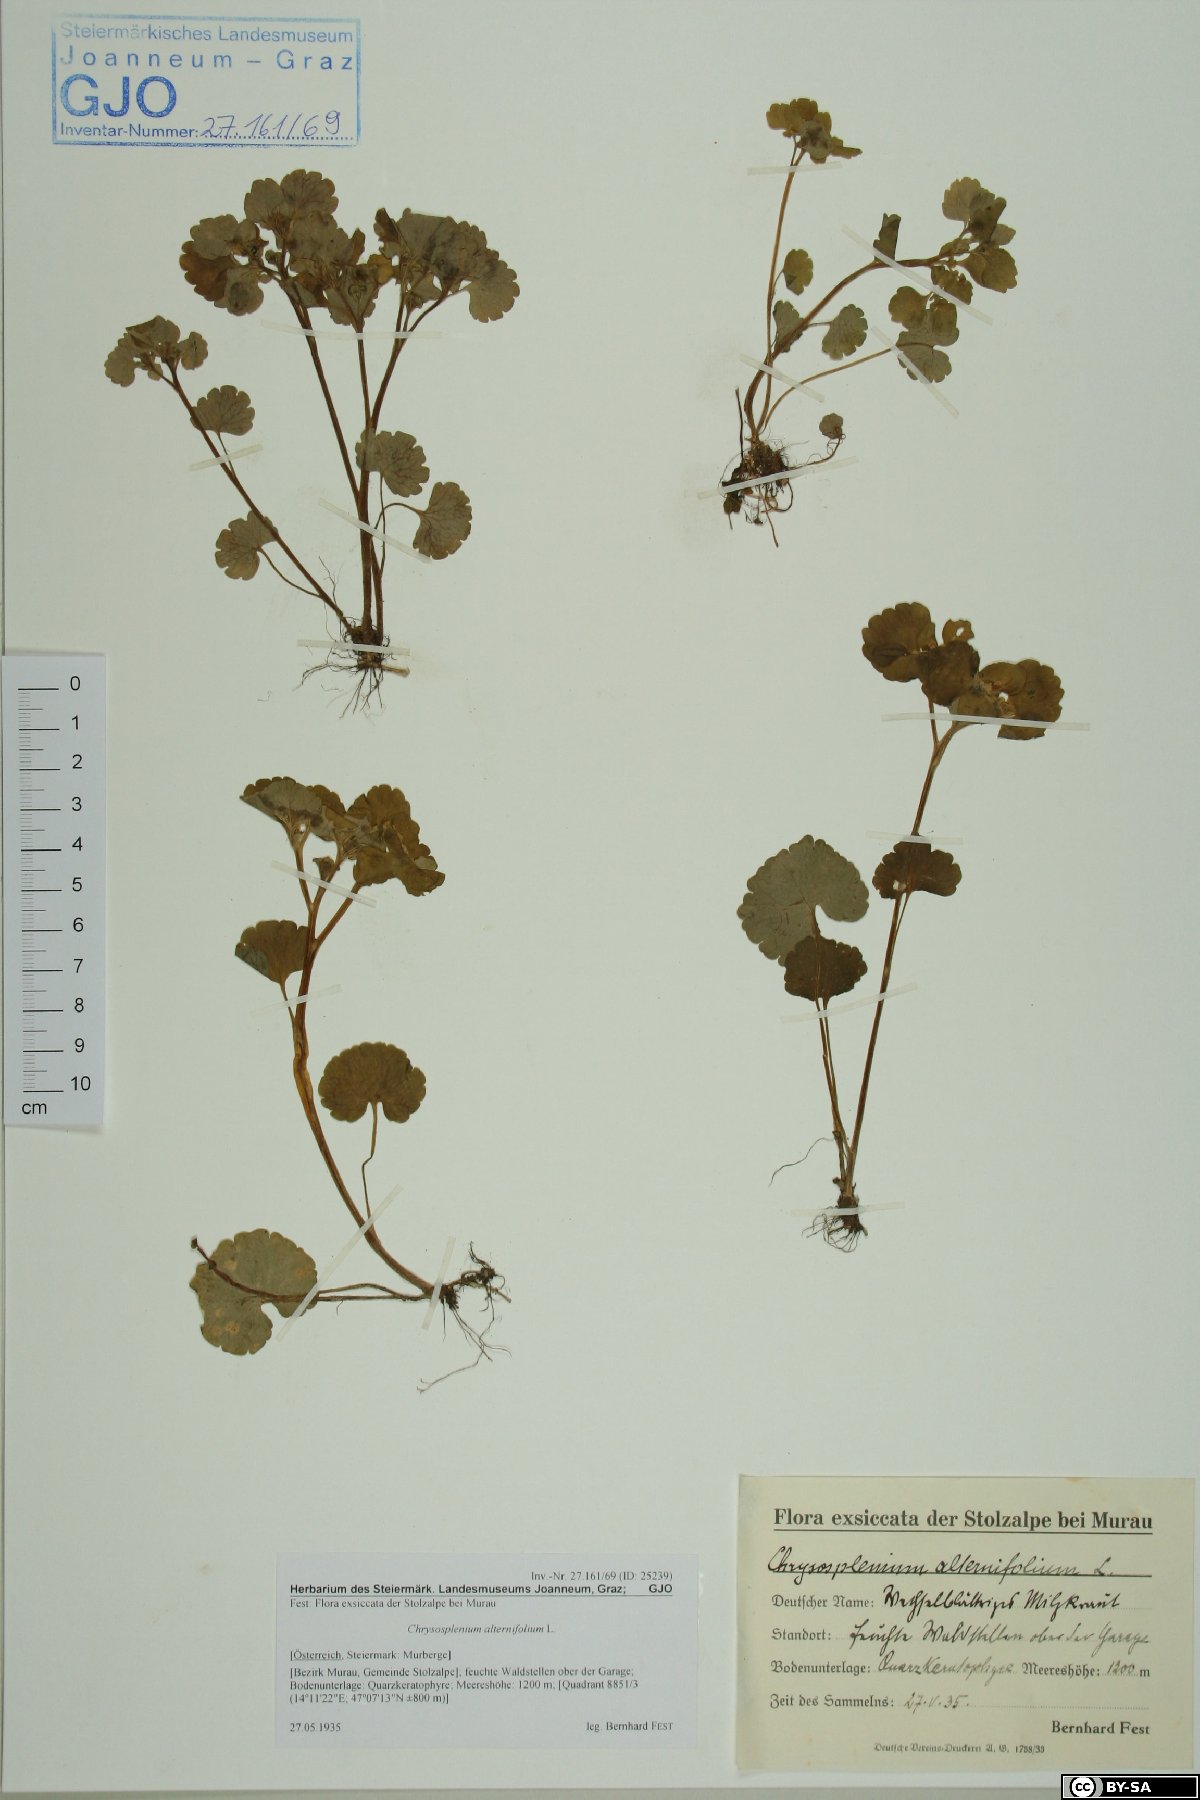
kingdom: Plantae
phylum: Tracheophyta
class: Magnoliopsida
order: Saxifragales
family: Saxifragaceae
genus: Chrysosplenium
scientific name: Chrysosplenium alternifolium
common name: Alternate-leaved golden-saxifrage
